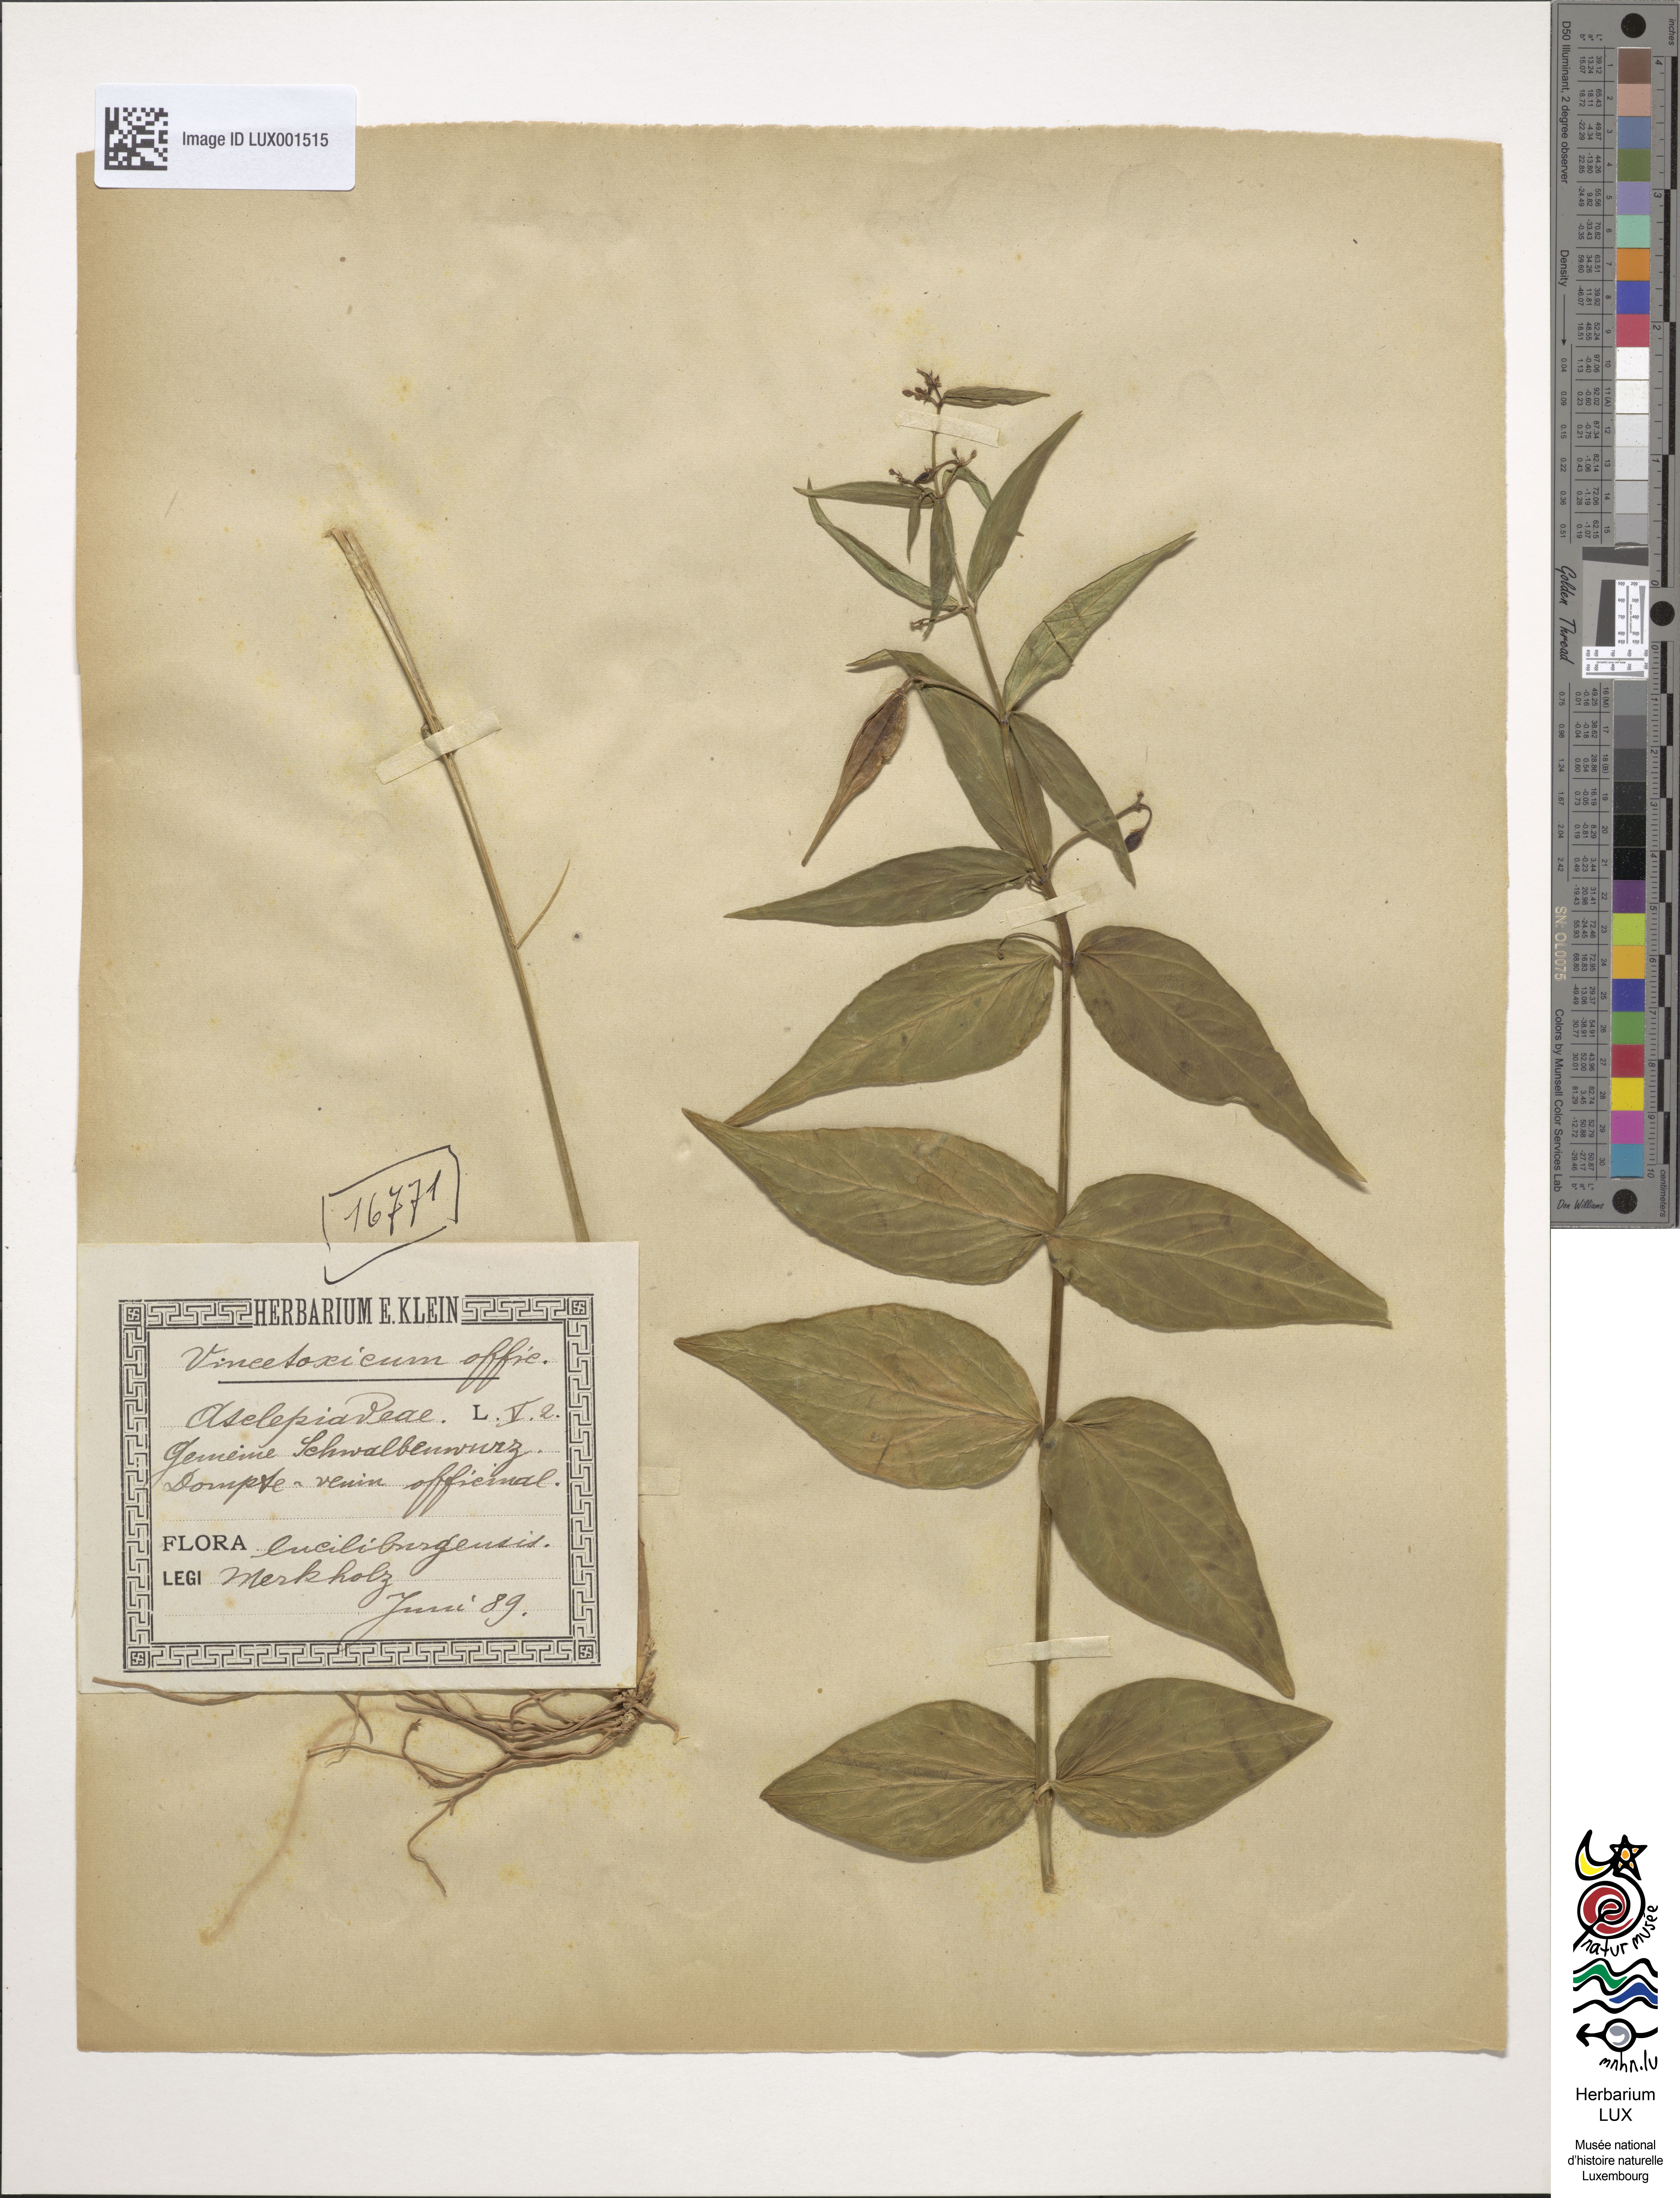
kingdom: Plantae
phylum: Tracheophyta
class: Magnoliopsida
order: Gentianales
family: Apocynaceae
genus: Vincetoxicum
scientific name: Vincetoxicum hirundinaria
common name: White swallowwort
